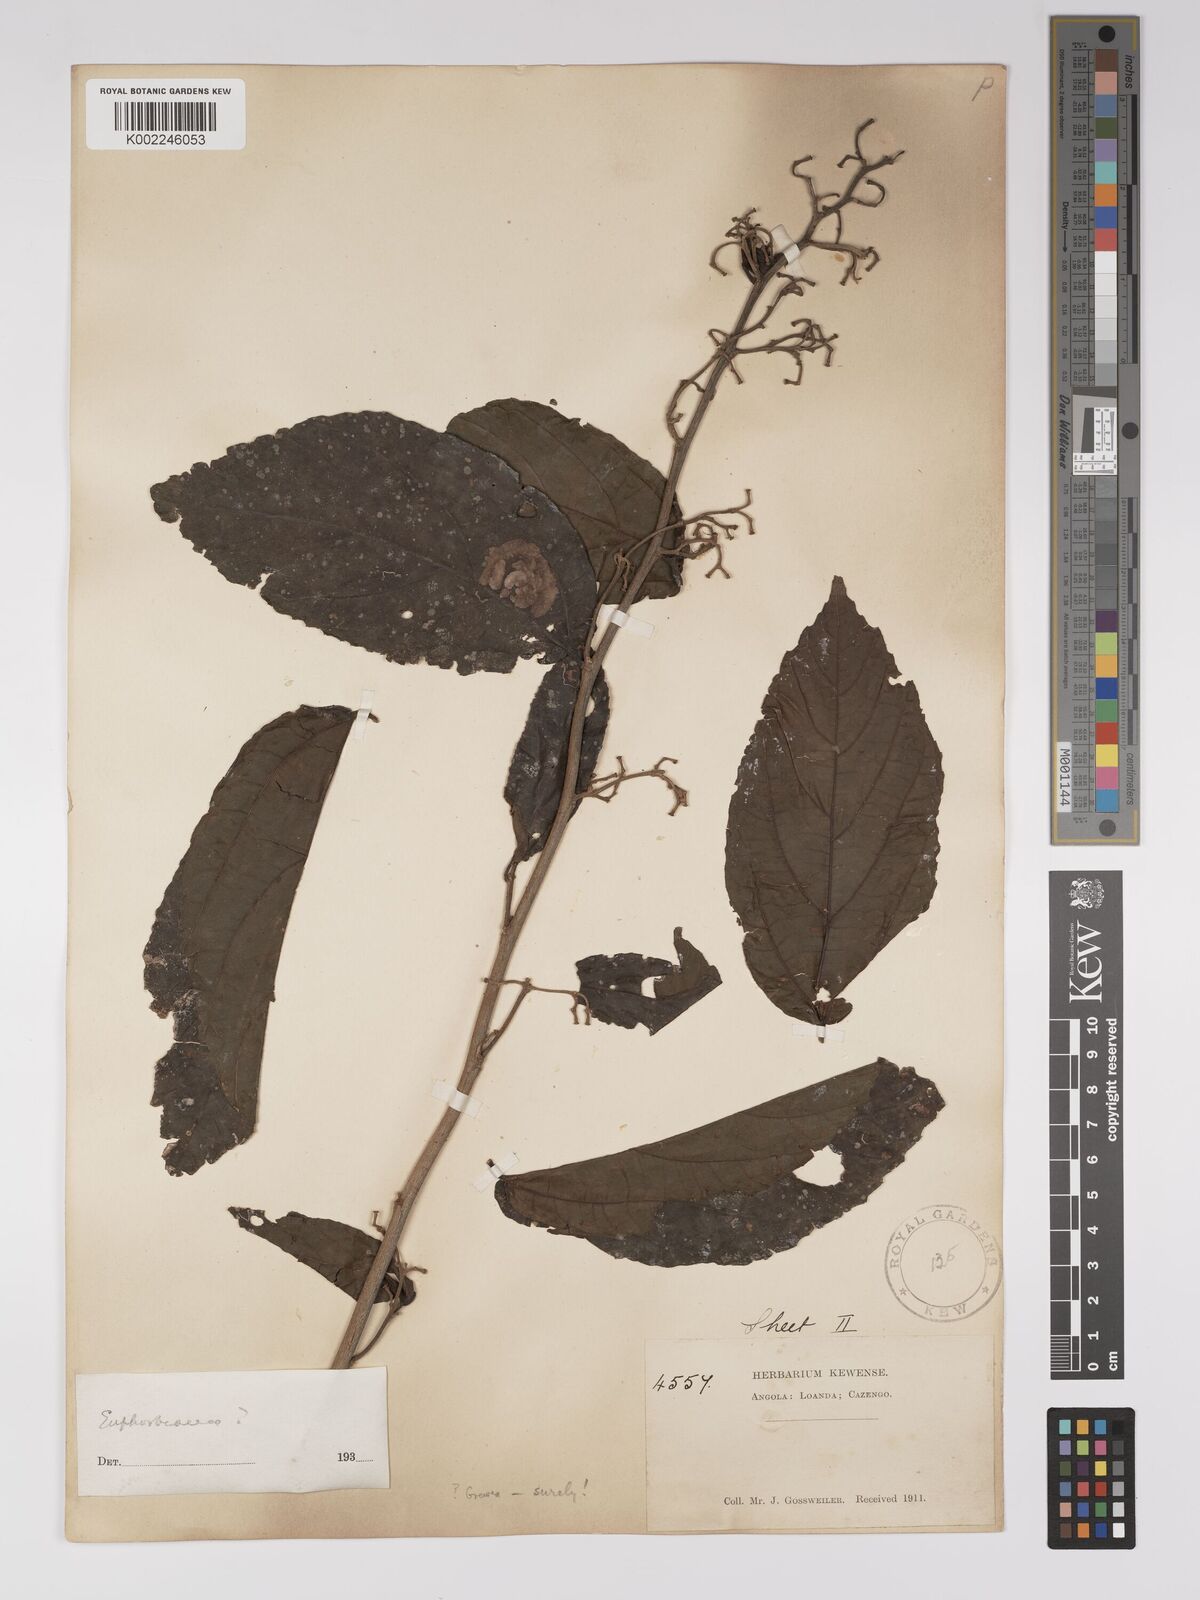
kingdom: Plantae
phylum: Tracheophyta
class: Magnoliopsida
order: Malpighiales
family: Euphorbiaceae
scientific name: Euphorbiaceae
